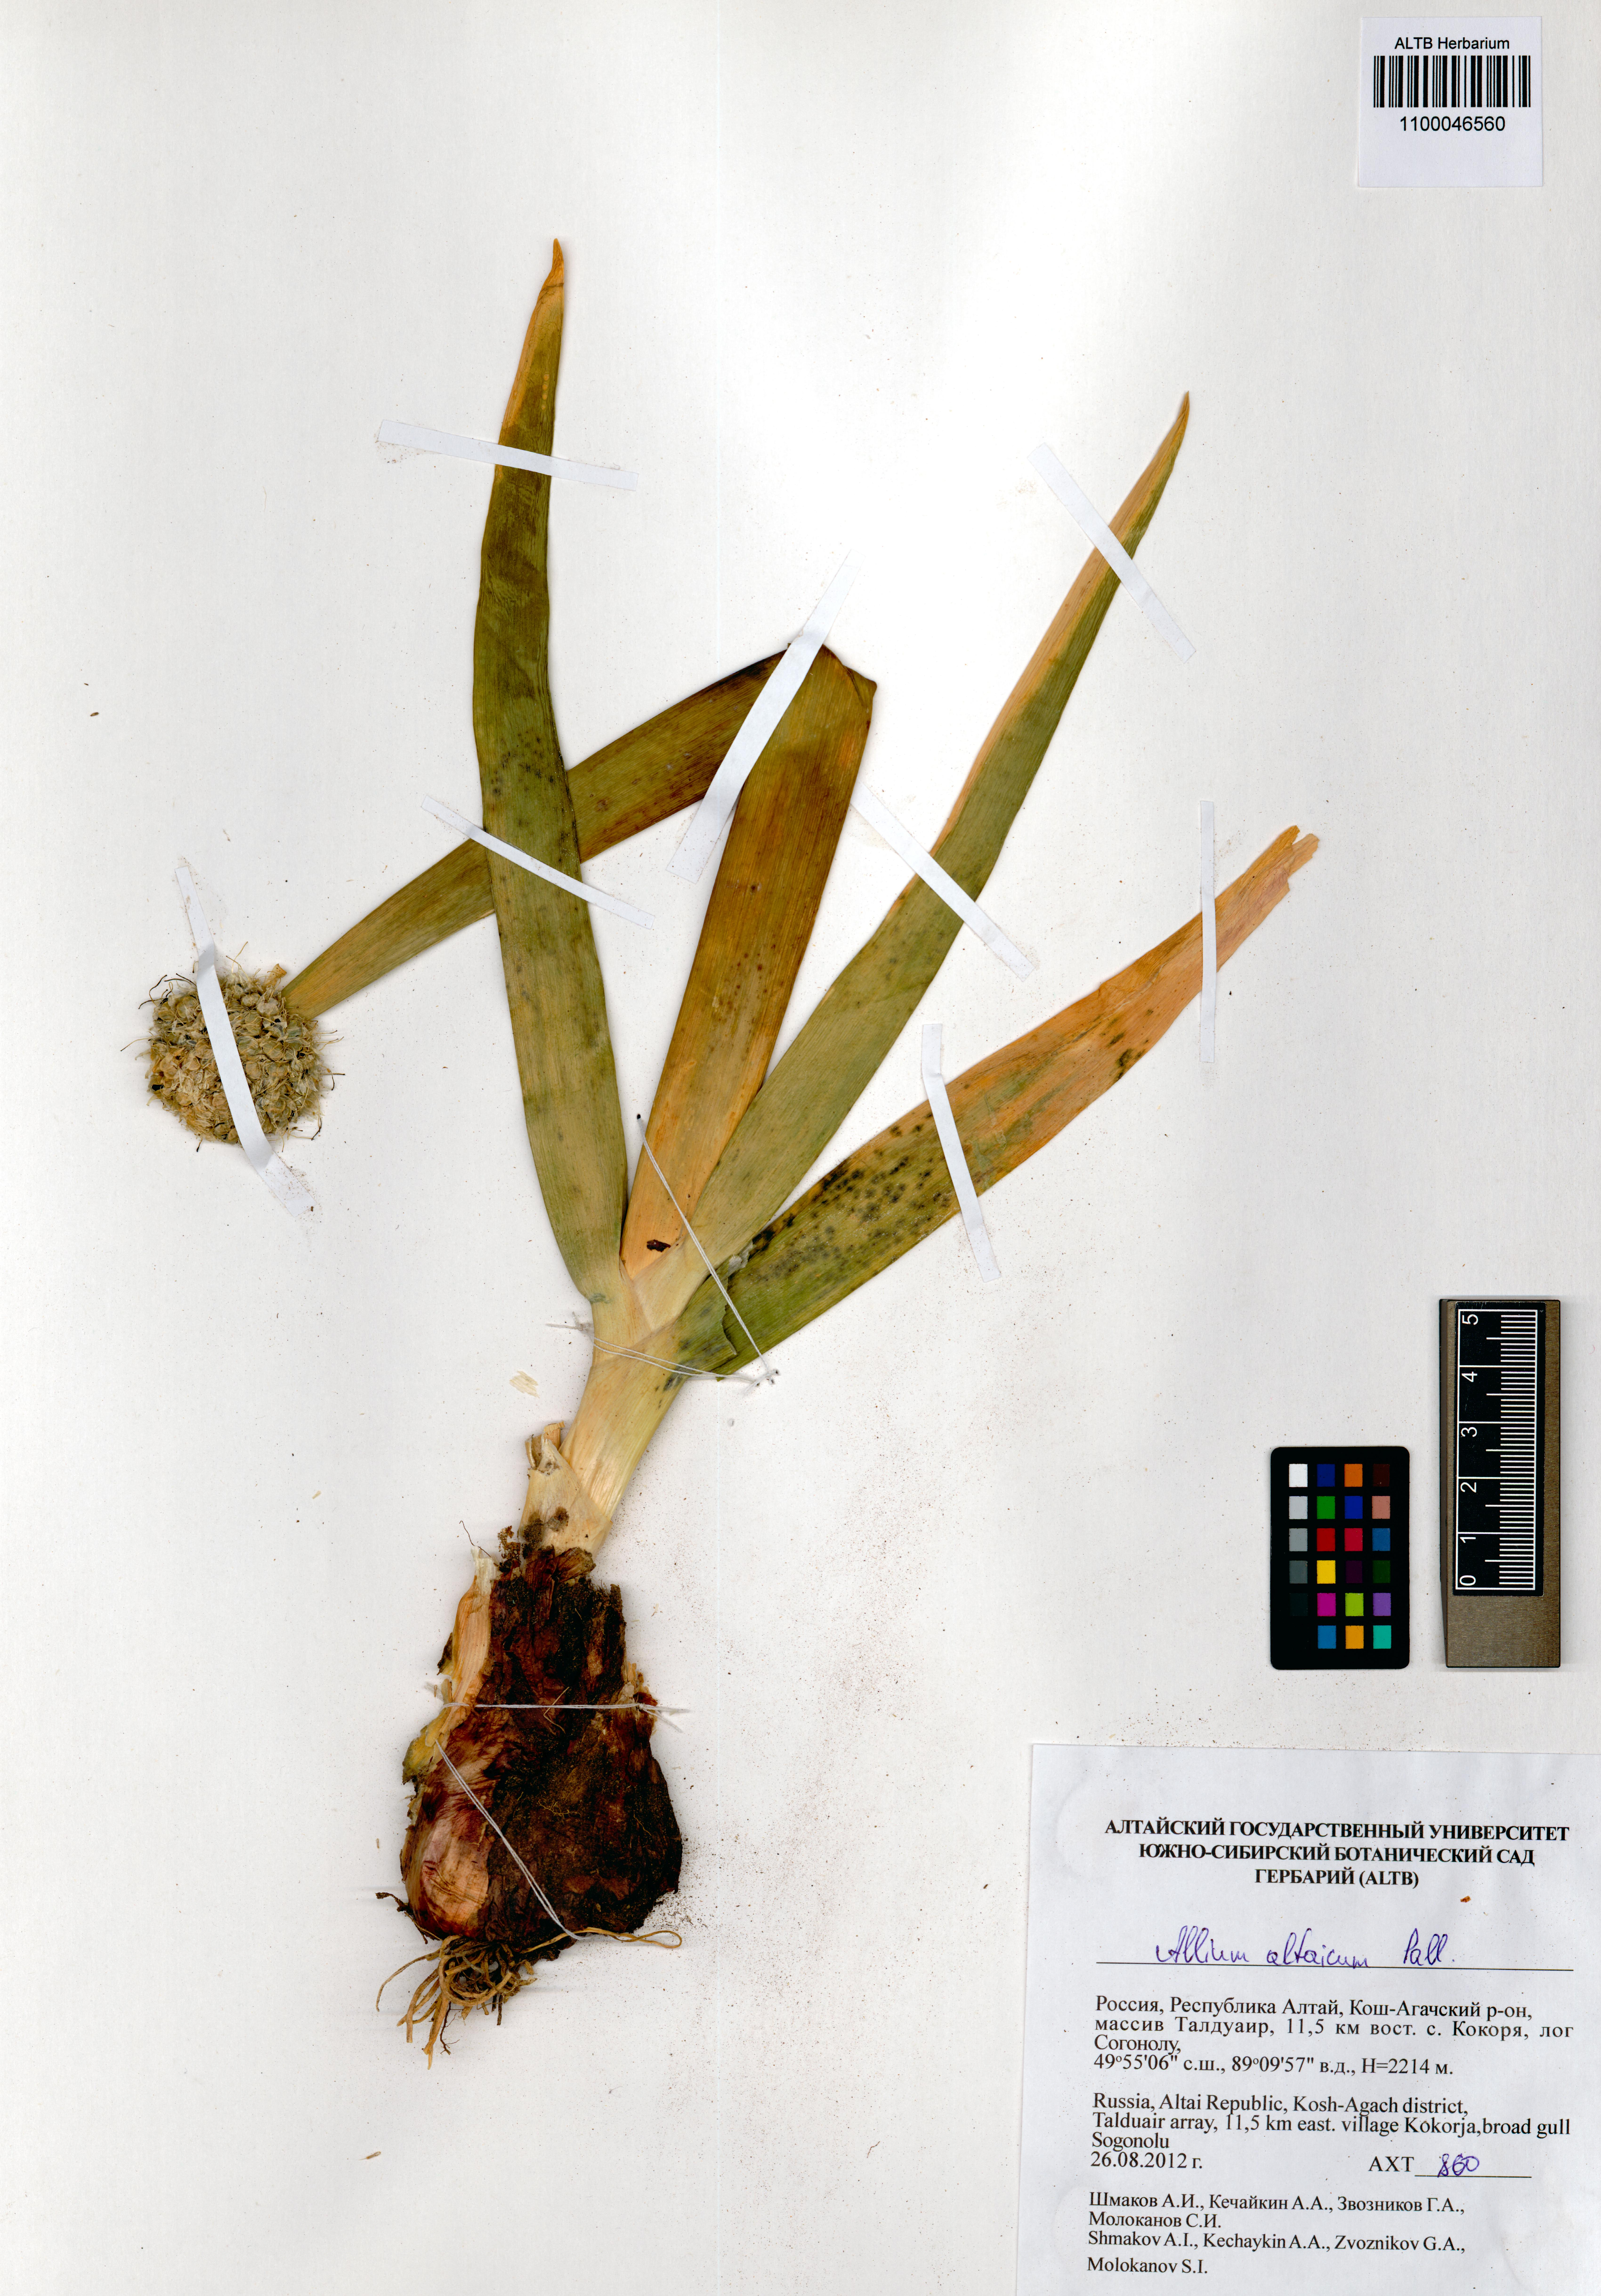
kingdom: Plantae
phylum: Tracheophyta
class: Liliopsida
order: Asparagales
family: Amaryllidaceae
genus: Allium
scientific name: Allium altaicum
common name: Altai onion
